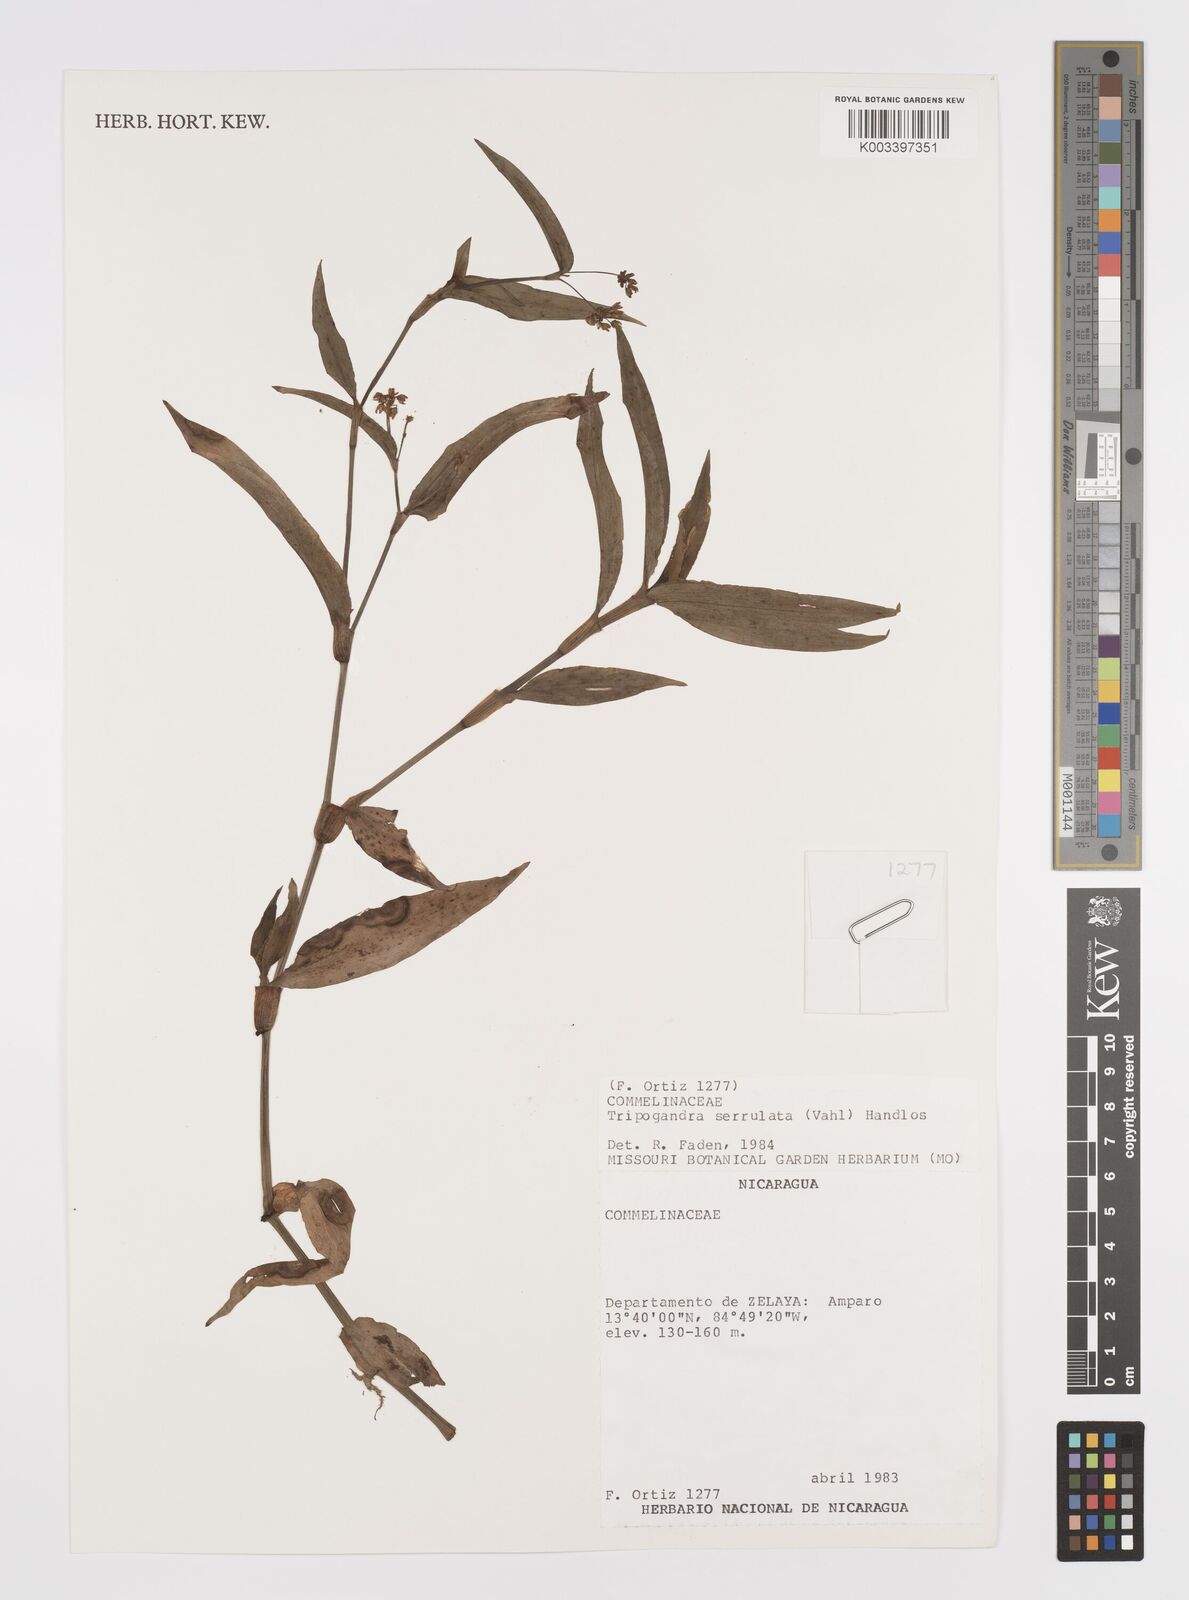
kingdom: Plantae
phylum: Tracheophyta
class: Liliopsida
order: Commelinales
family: Commelinaceae
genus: Callisia
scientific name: Callisia serrulata
